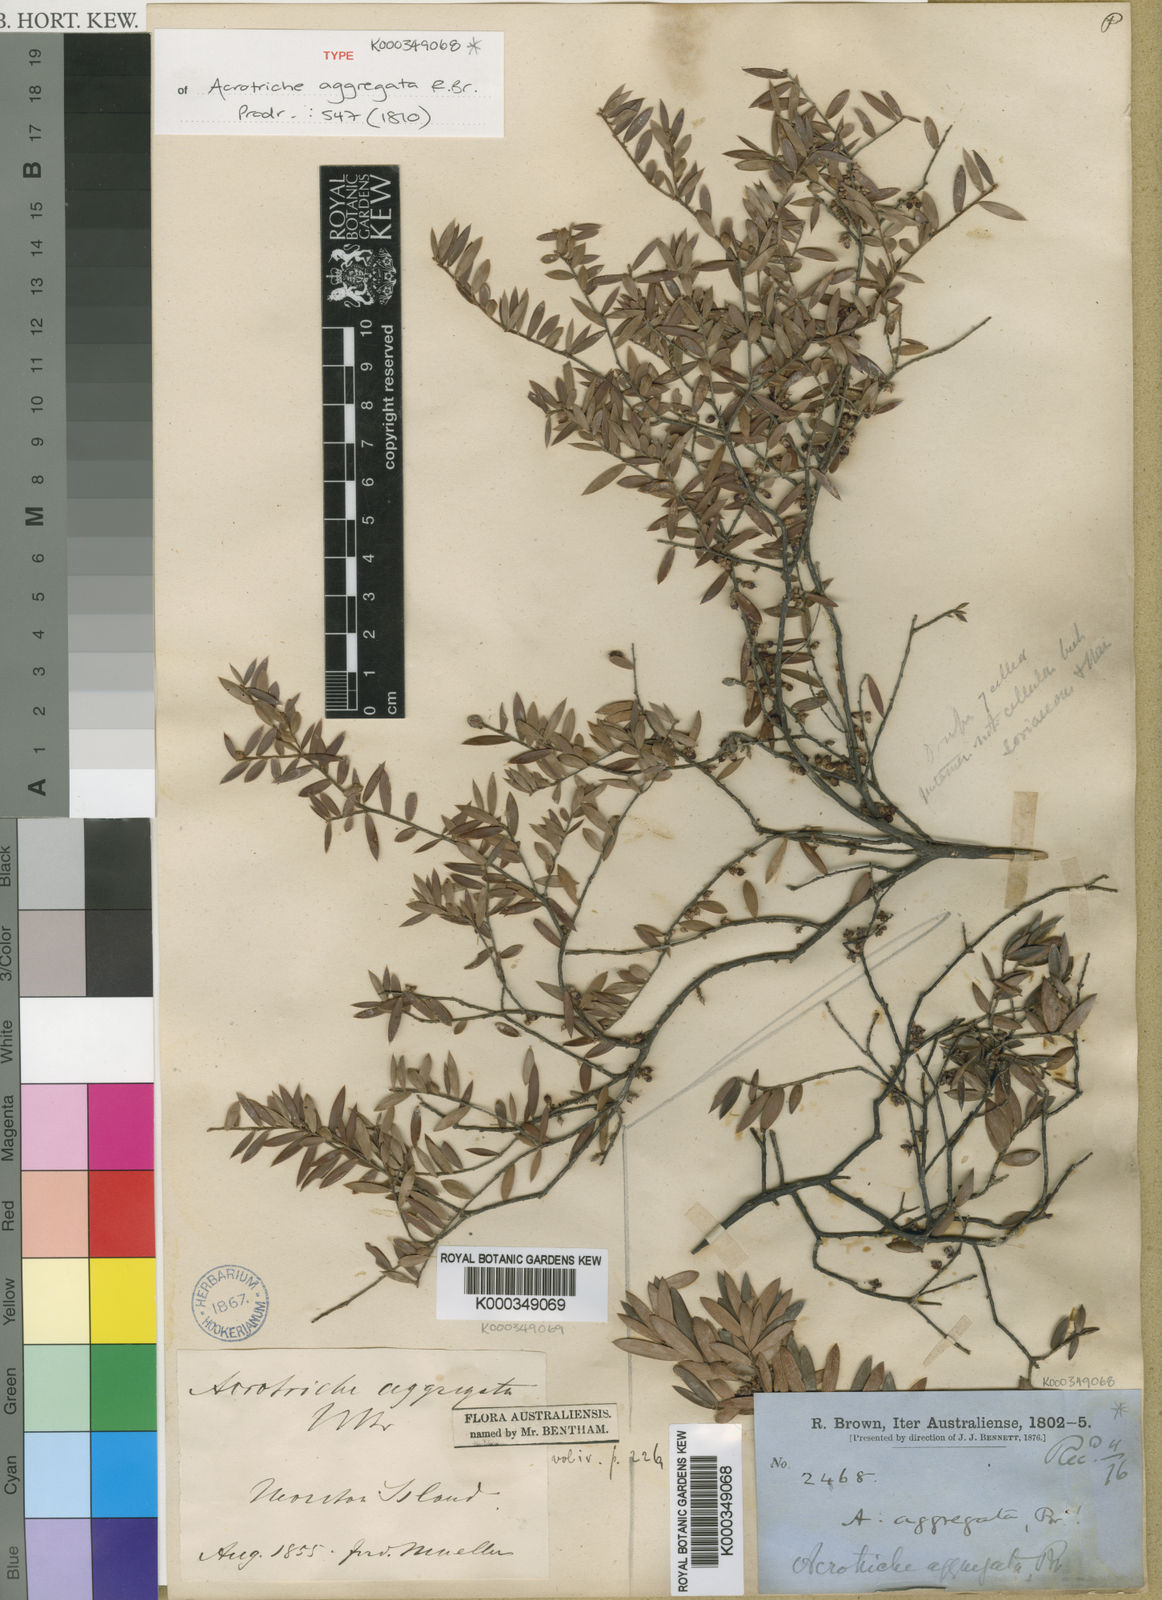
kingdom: Plantae
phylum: Tracheophyta
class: Magnoliopsida
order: Ericales
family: Ericaceae
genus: Acrotriche
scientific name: Acrotriche aggregata
